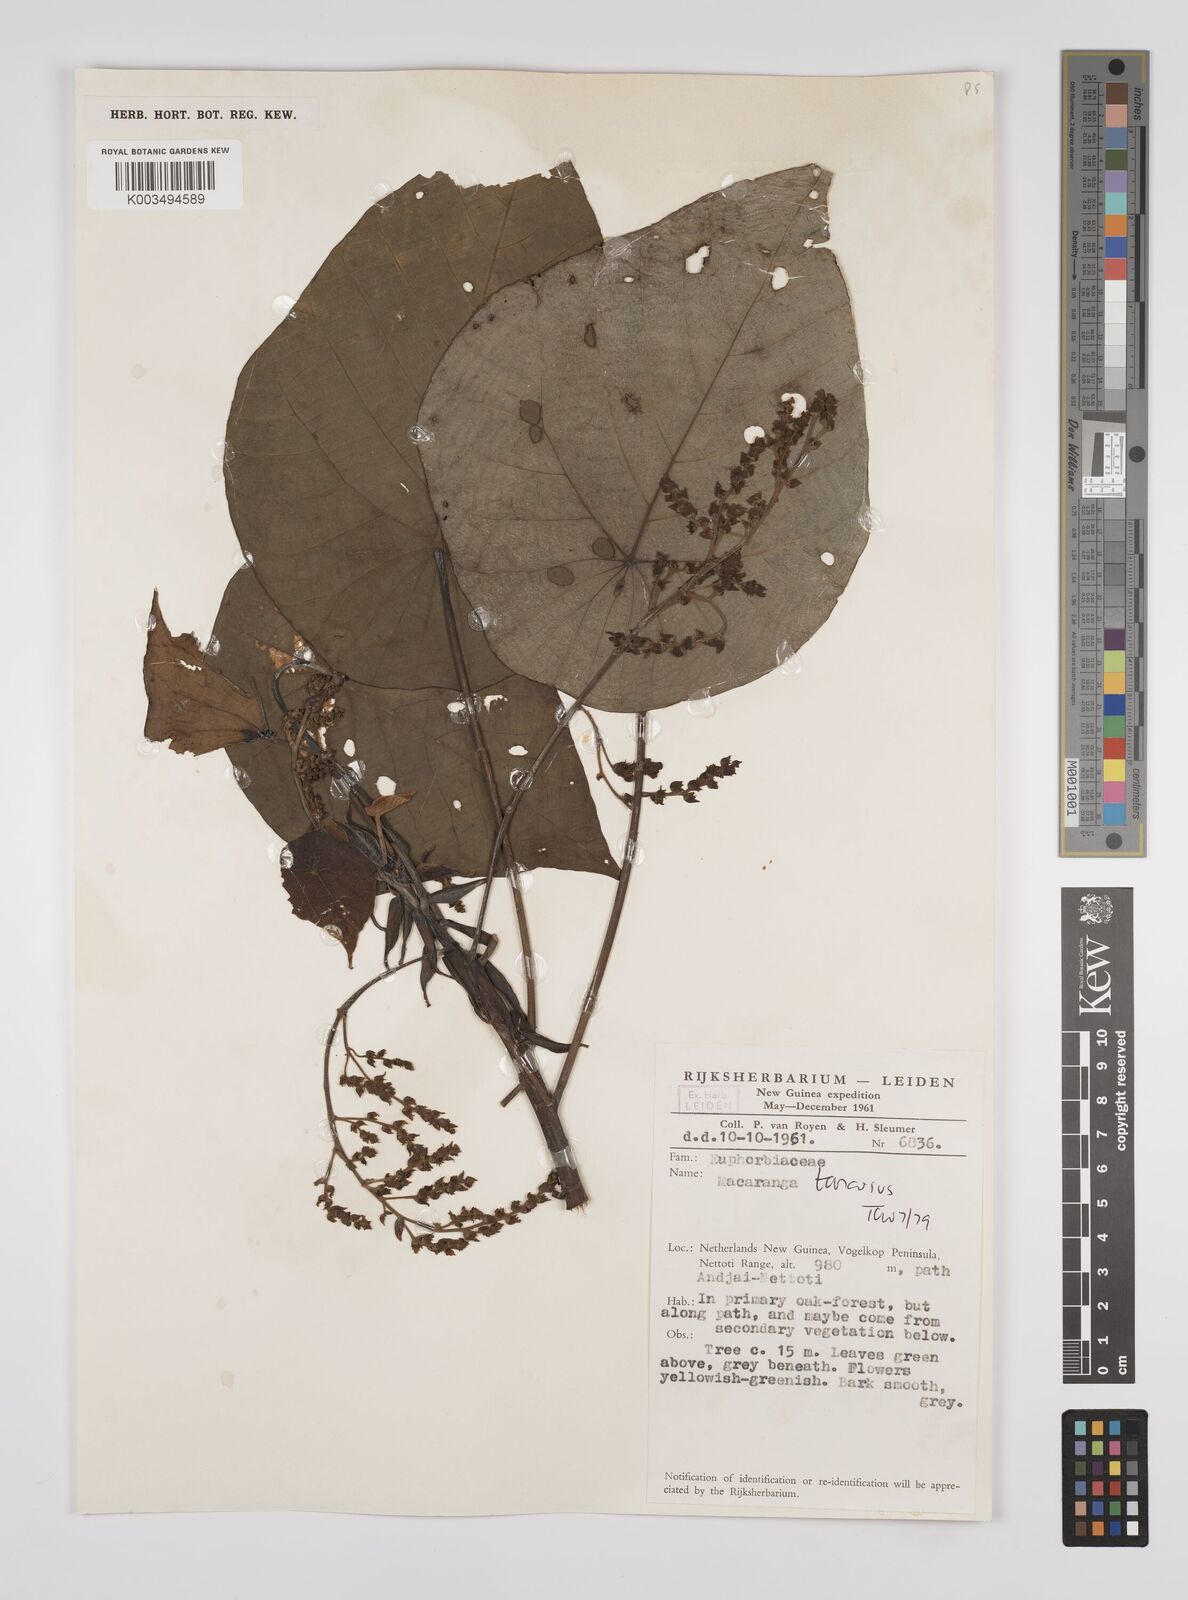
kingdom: Plantae
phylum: Tracheophyta
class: Magnoliopsida
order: Malpighiales
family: Euphorbiaceae
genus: Macaranga
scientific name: Macaranga tanarius
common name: Parasol leaf tree
